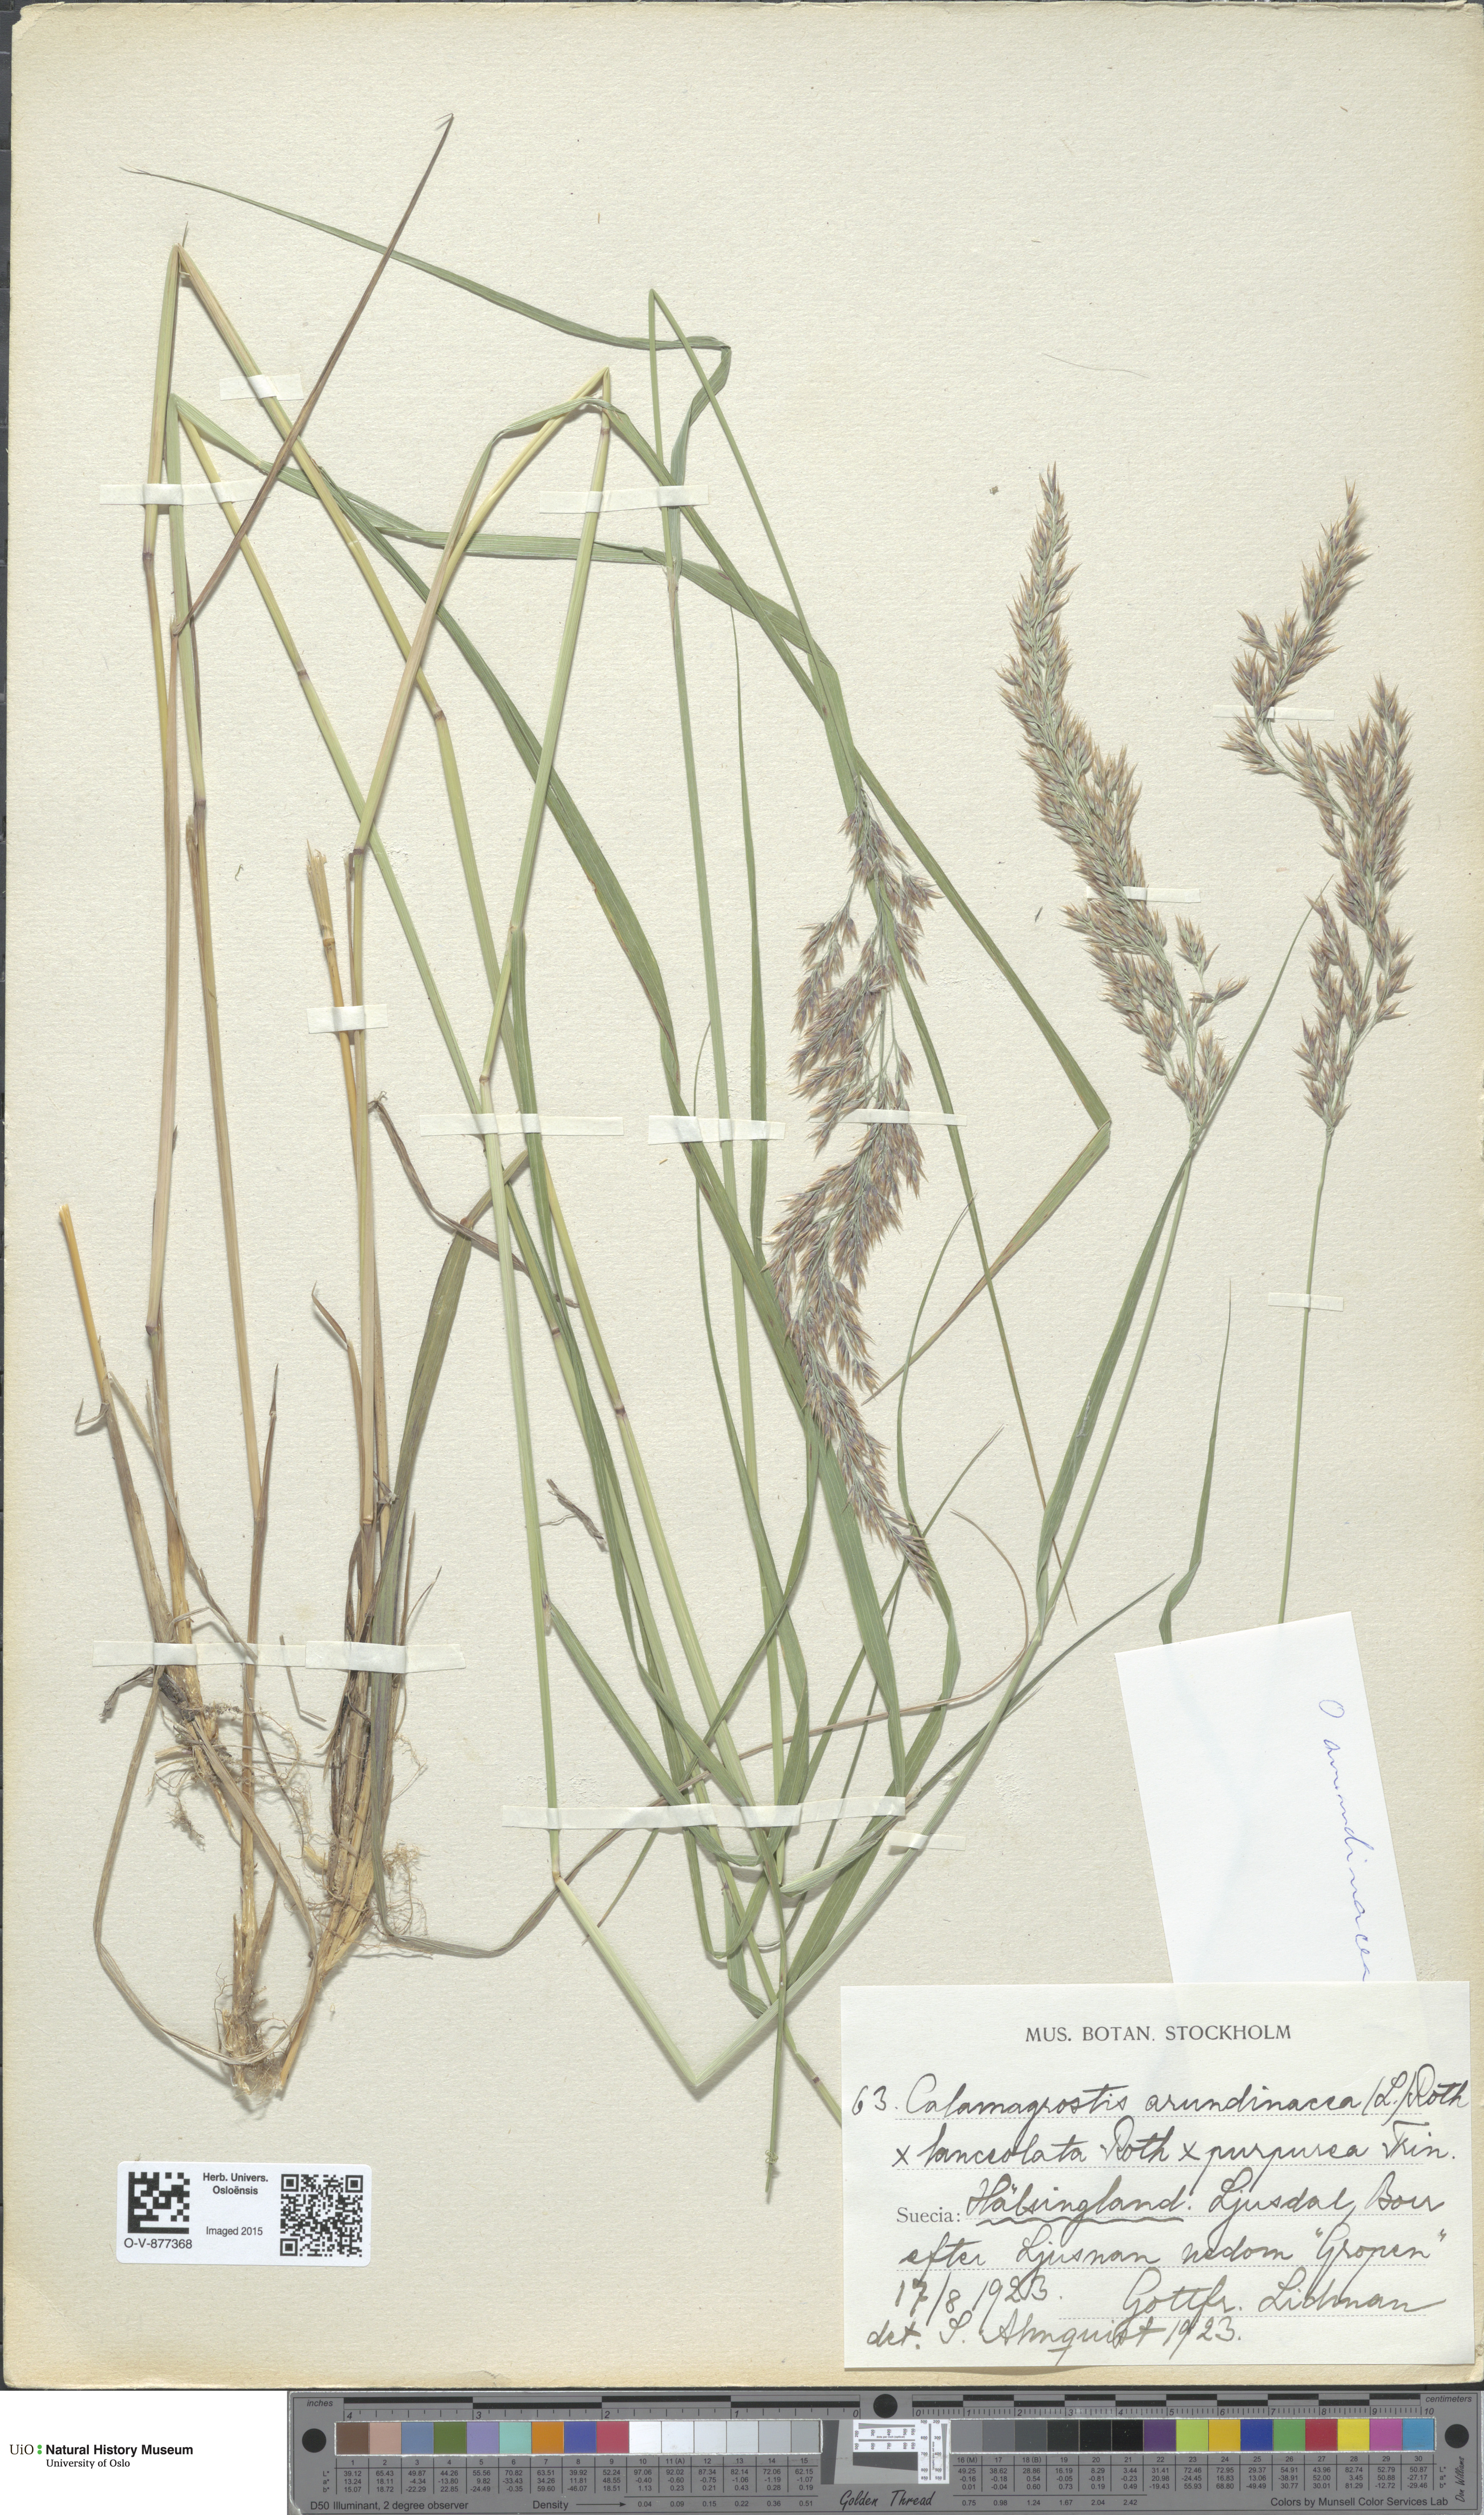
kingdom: Plantae
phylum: Tracheophyta
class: Liliopsida
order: Poales
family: Poaceae
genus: Calamagrostis
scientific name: Calamagrostis
